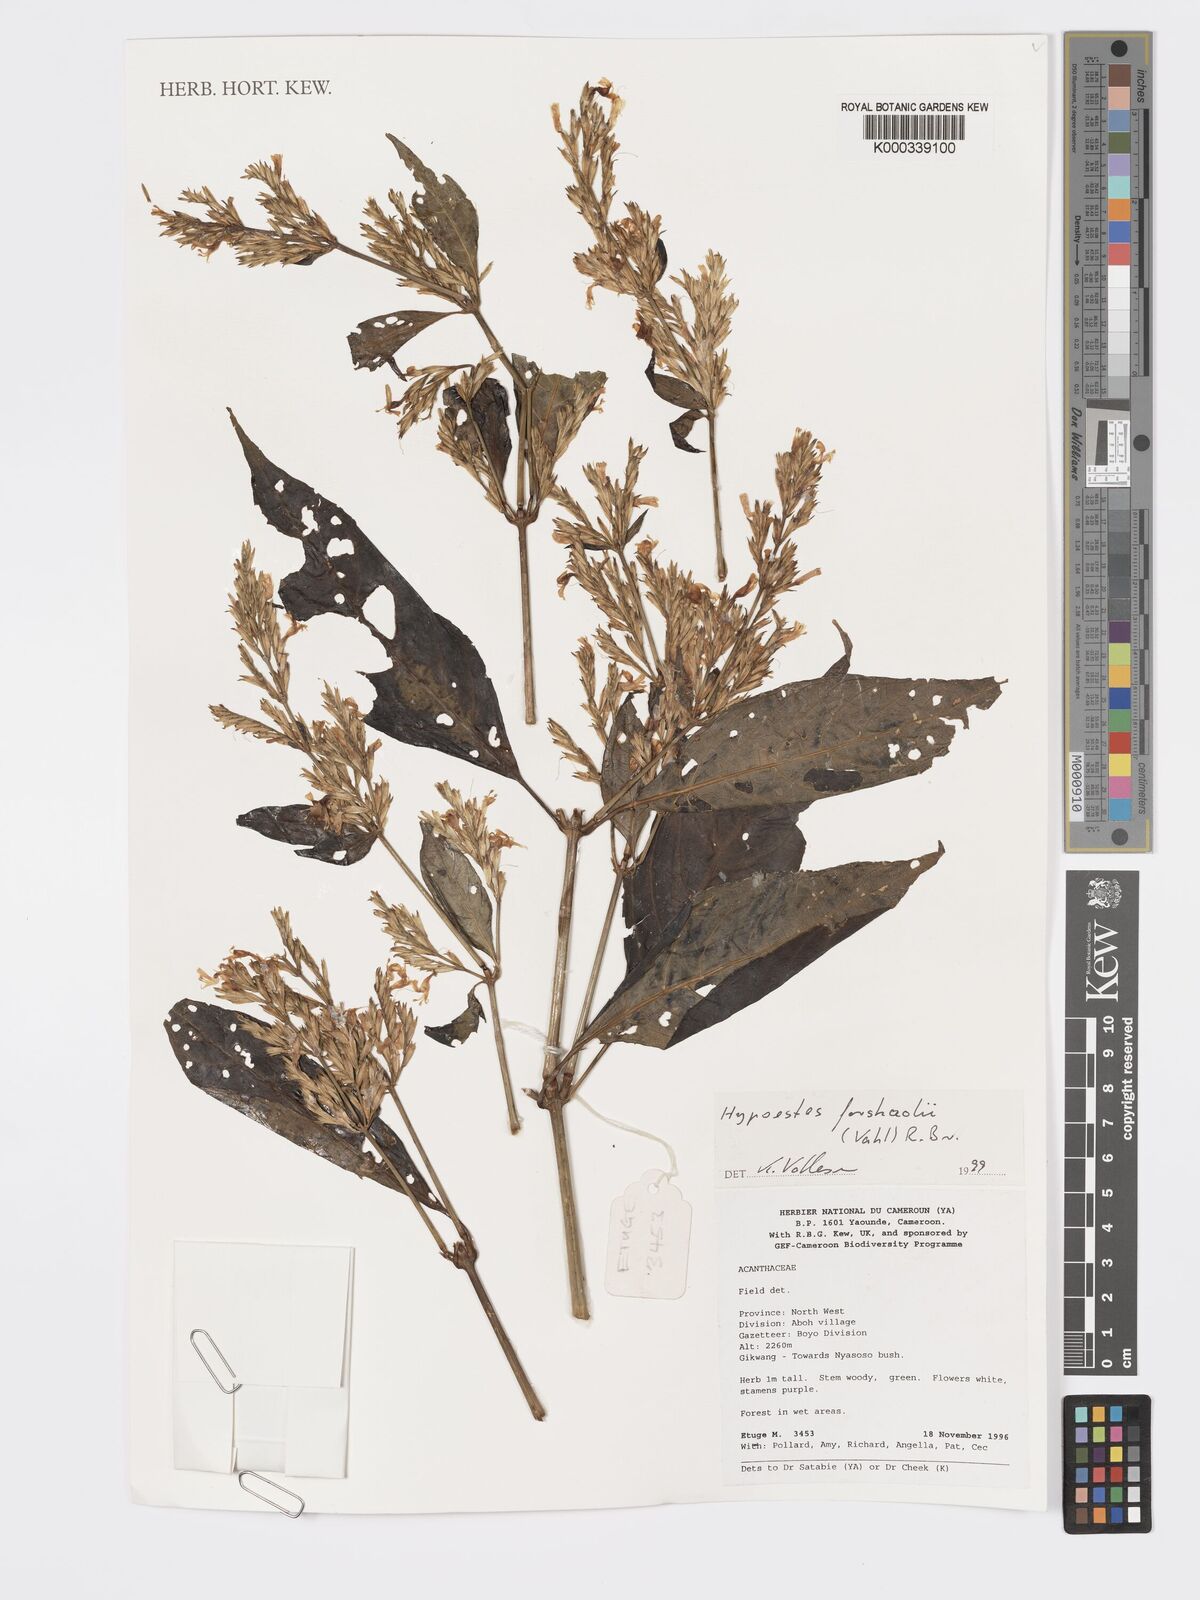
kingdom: Plantae
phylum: Tracheophyta
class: Magnoliopsida
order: Lamiales
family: Acanthaceae
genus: Hypoestes
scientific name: Hypoestes forskaolii
